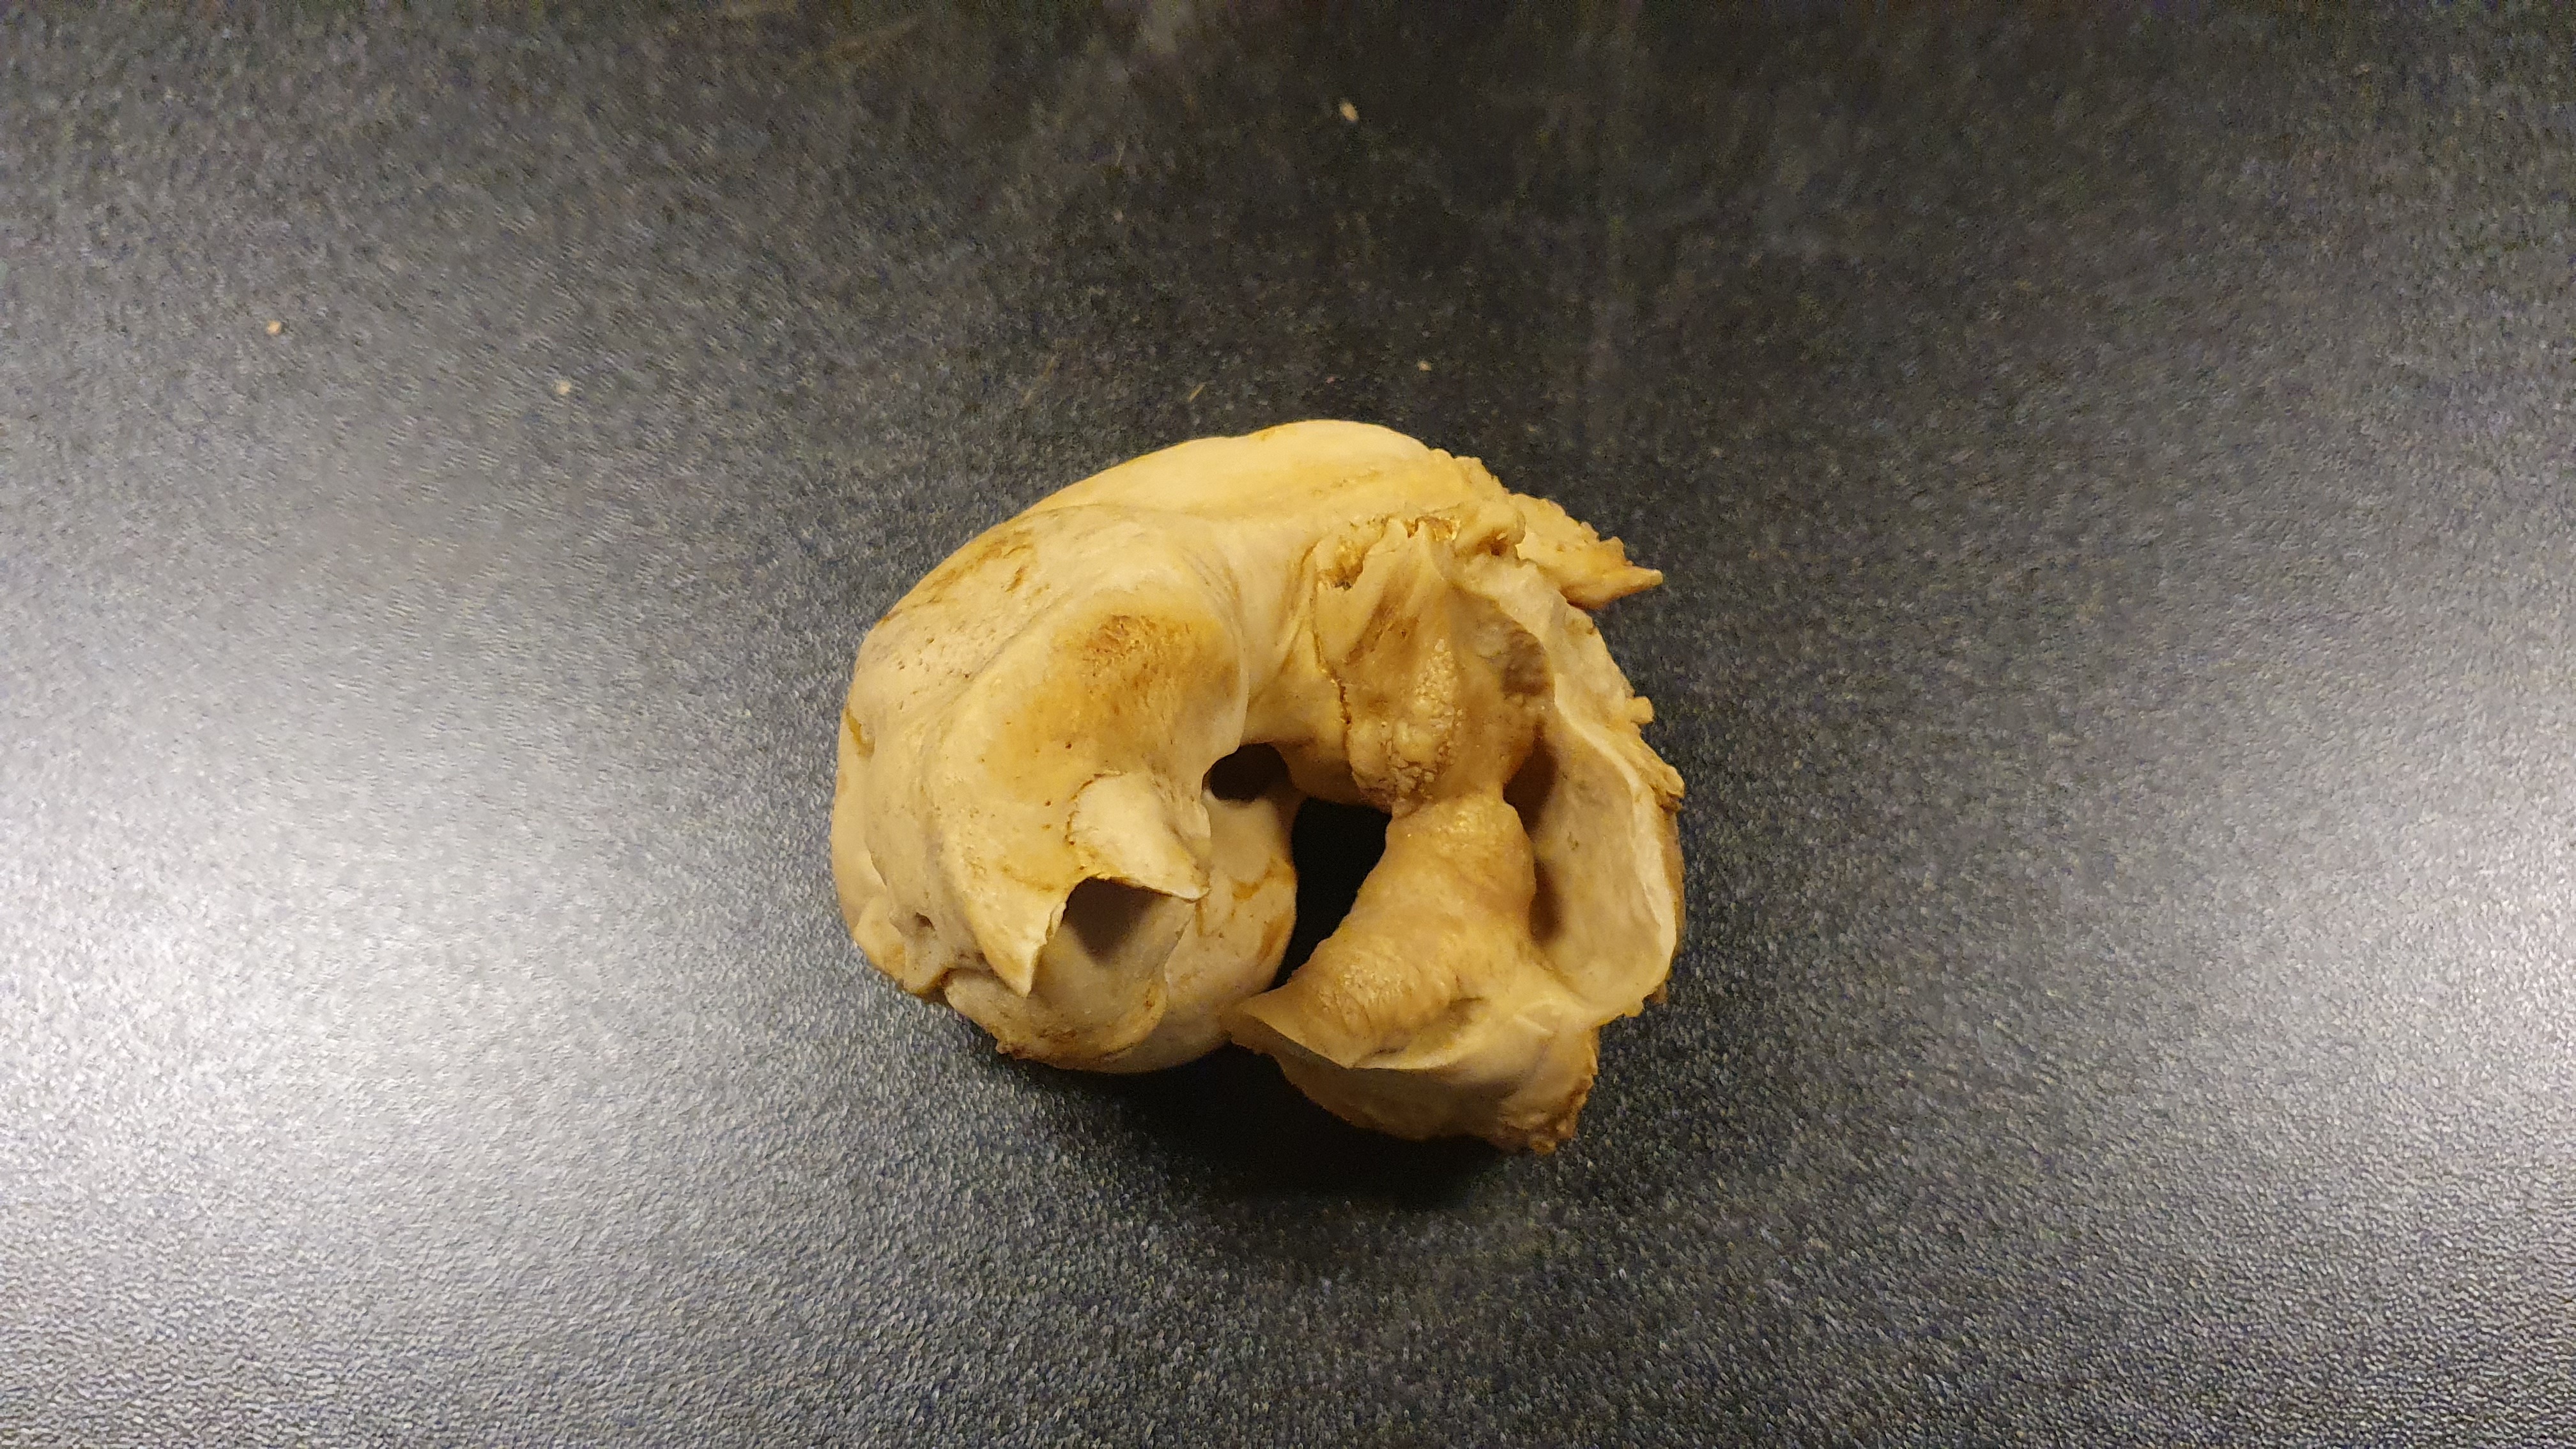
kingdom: Animalia
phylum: Chordata
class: Mammalia
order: Cetacea
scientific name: Cetacea
